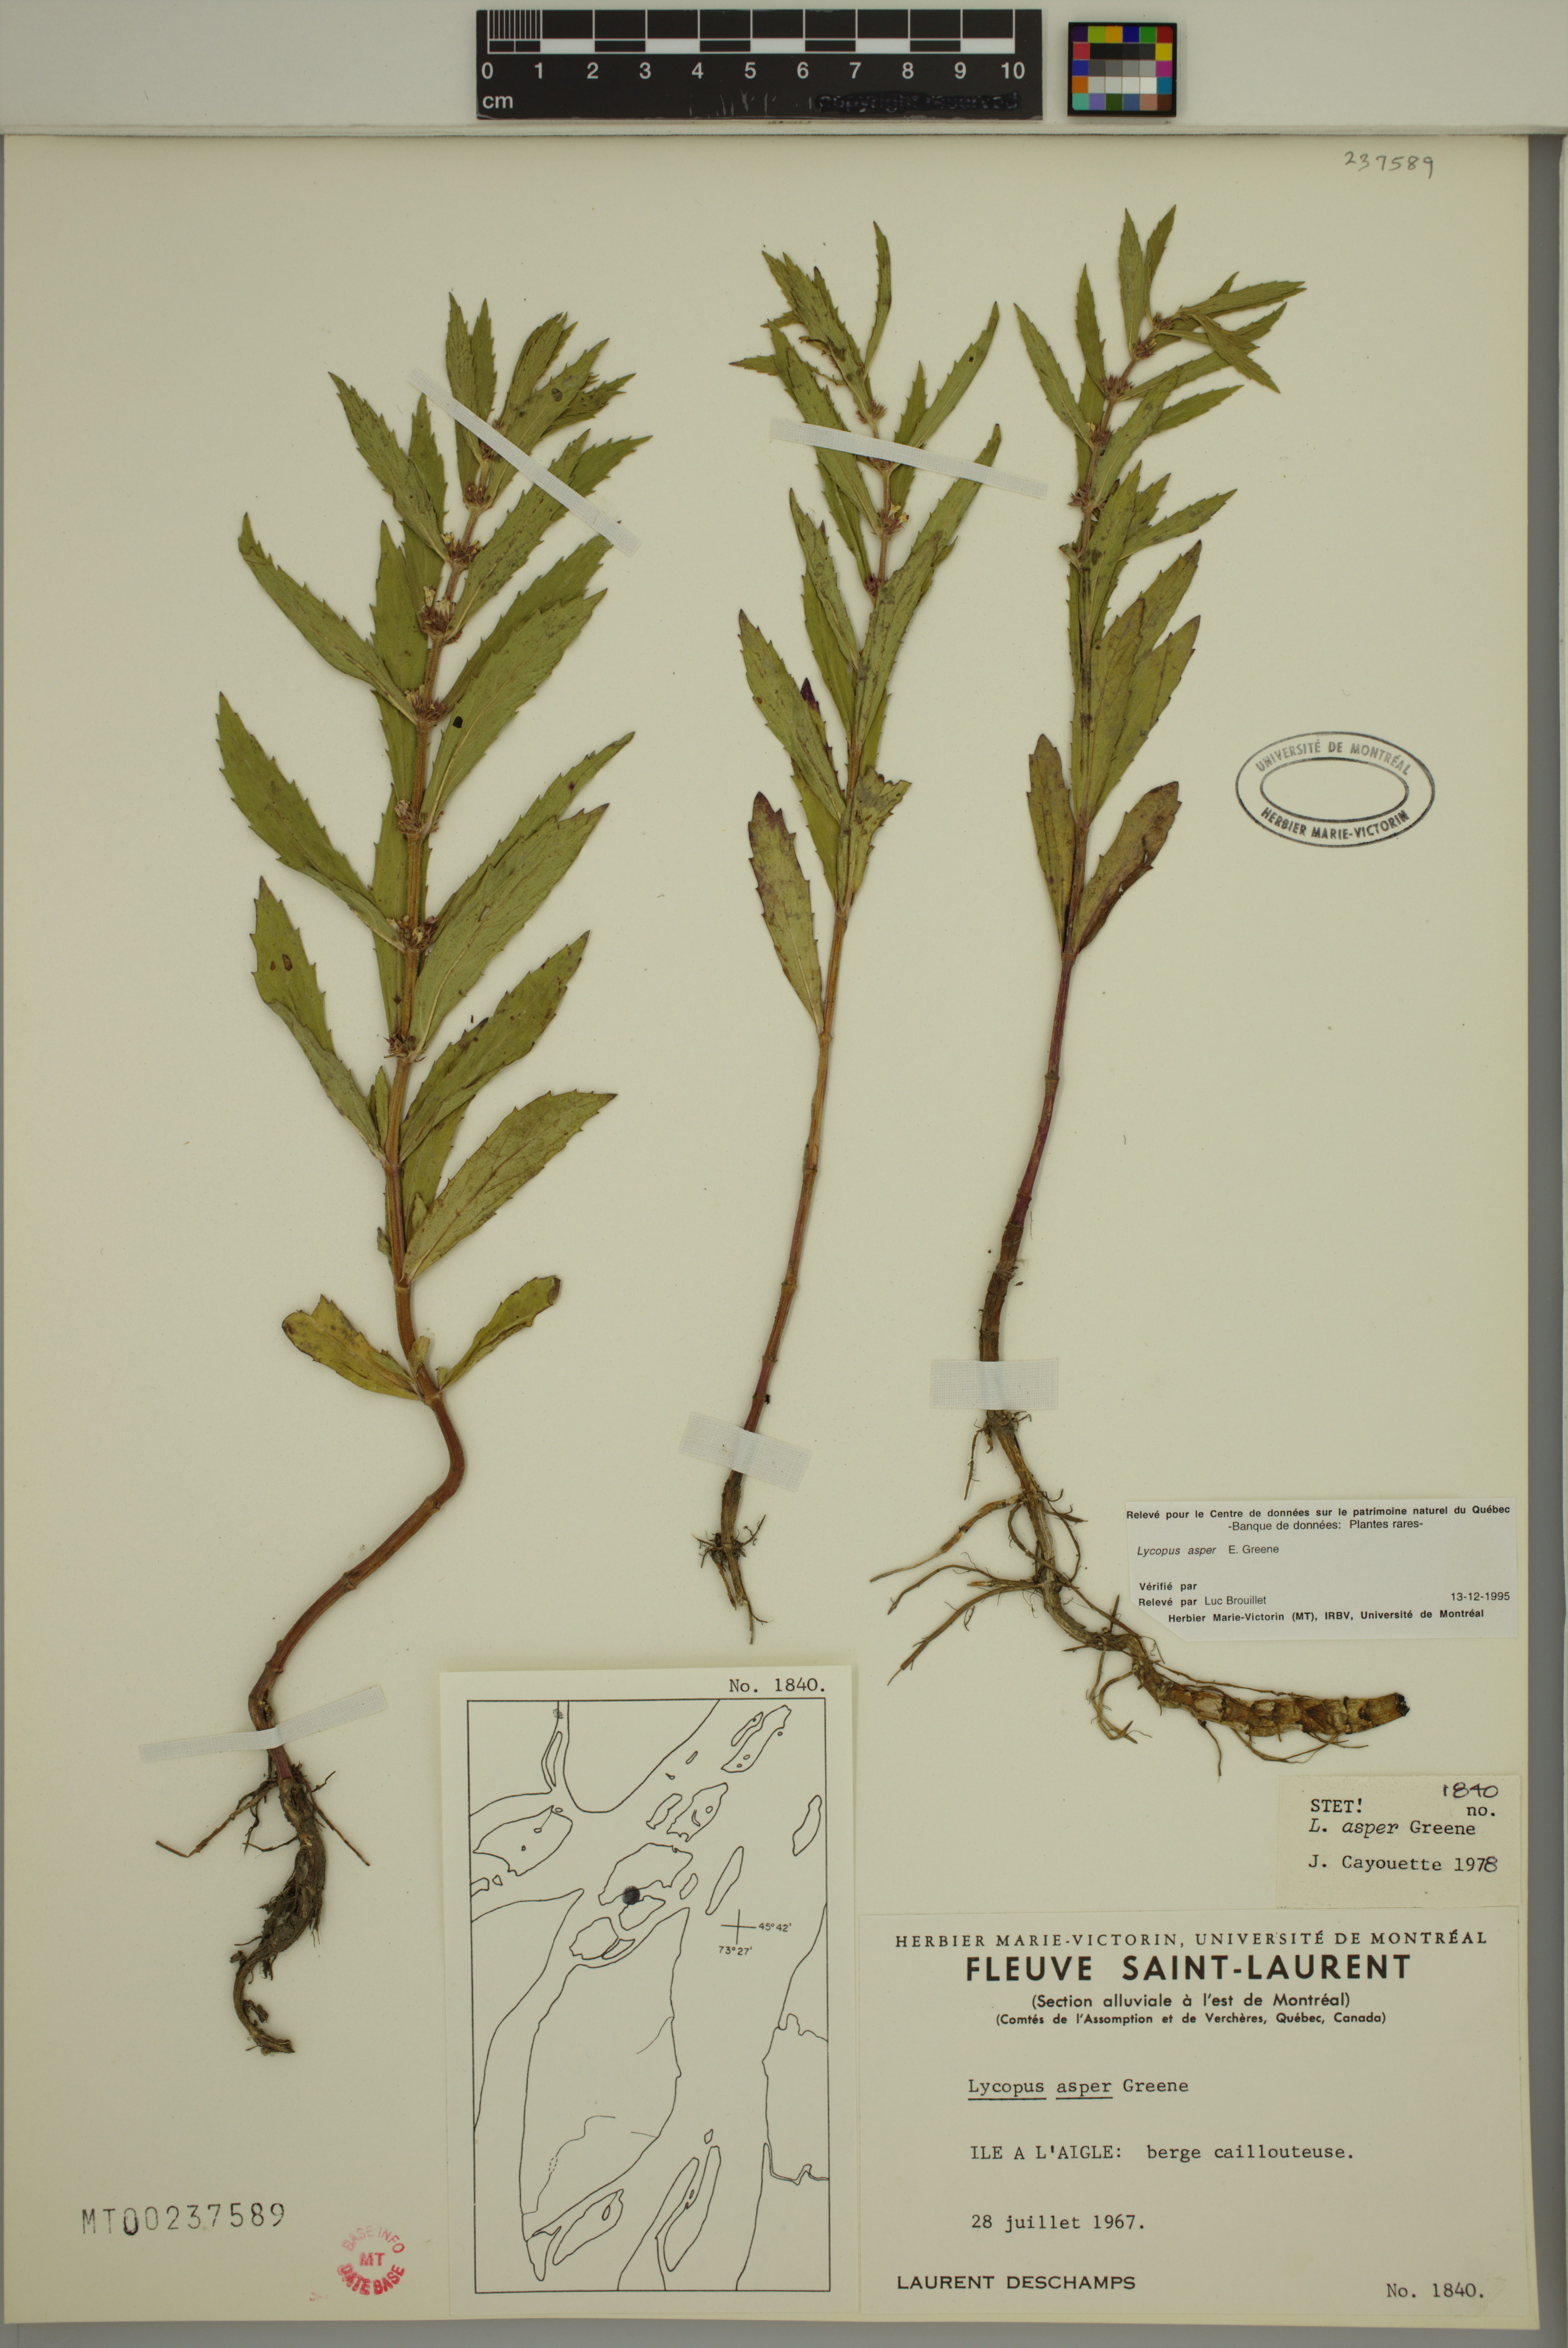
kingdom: Plantae
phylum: Tracheophyta
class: Magnoliopsida
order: Lamiales
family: Lamiaceae
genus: Lycopus
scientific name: Lycopus asper
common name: Rough water-horehound
